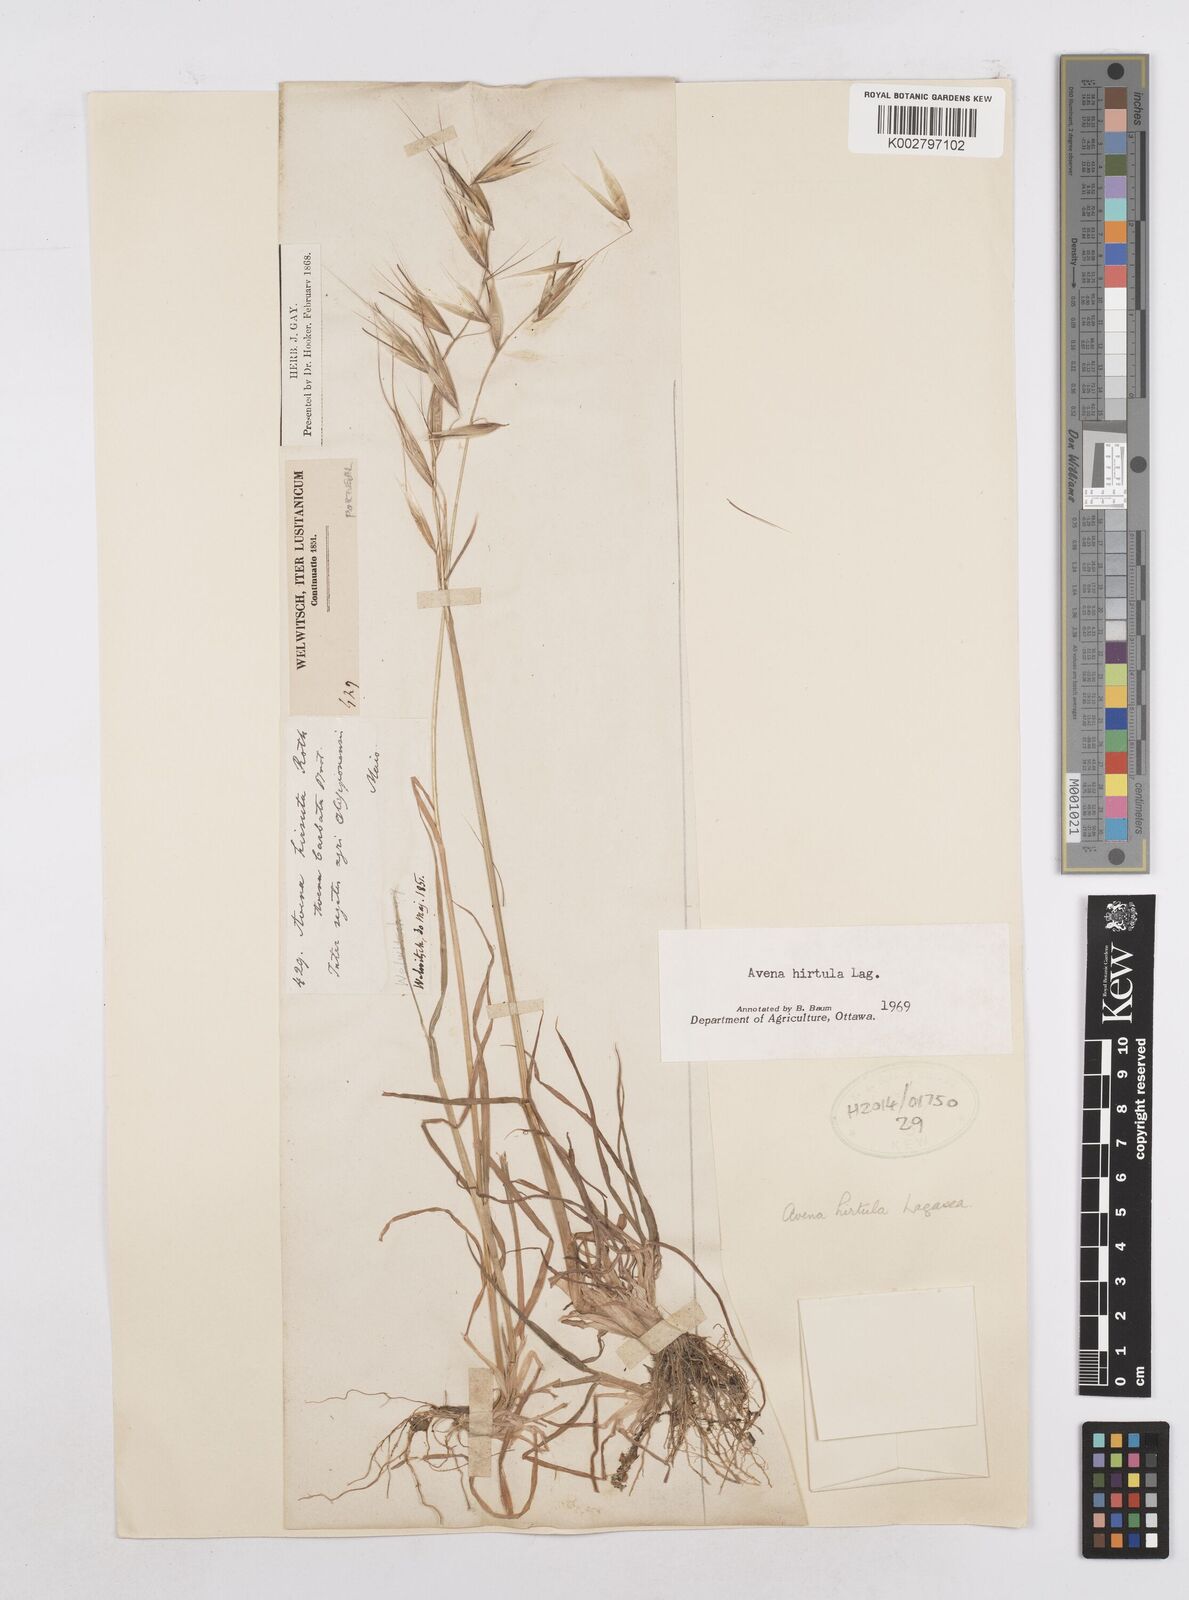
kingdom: Plantae
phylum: Tracheophyta
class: Liliopsida
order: Poales
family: Poaceae
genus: Avena
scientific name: Avena
